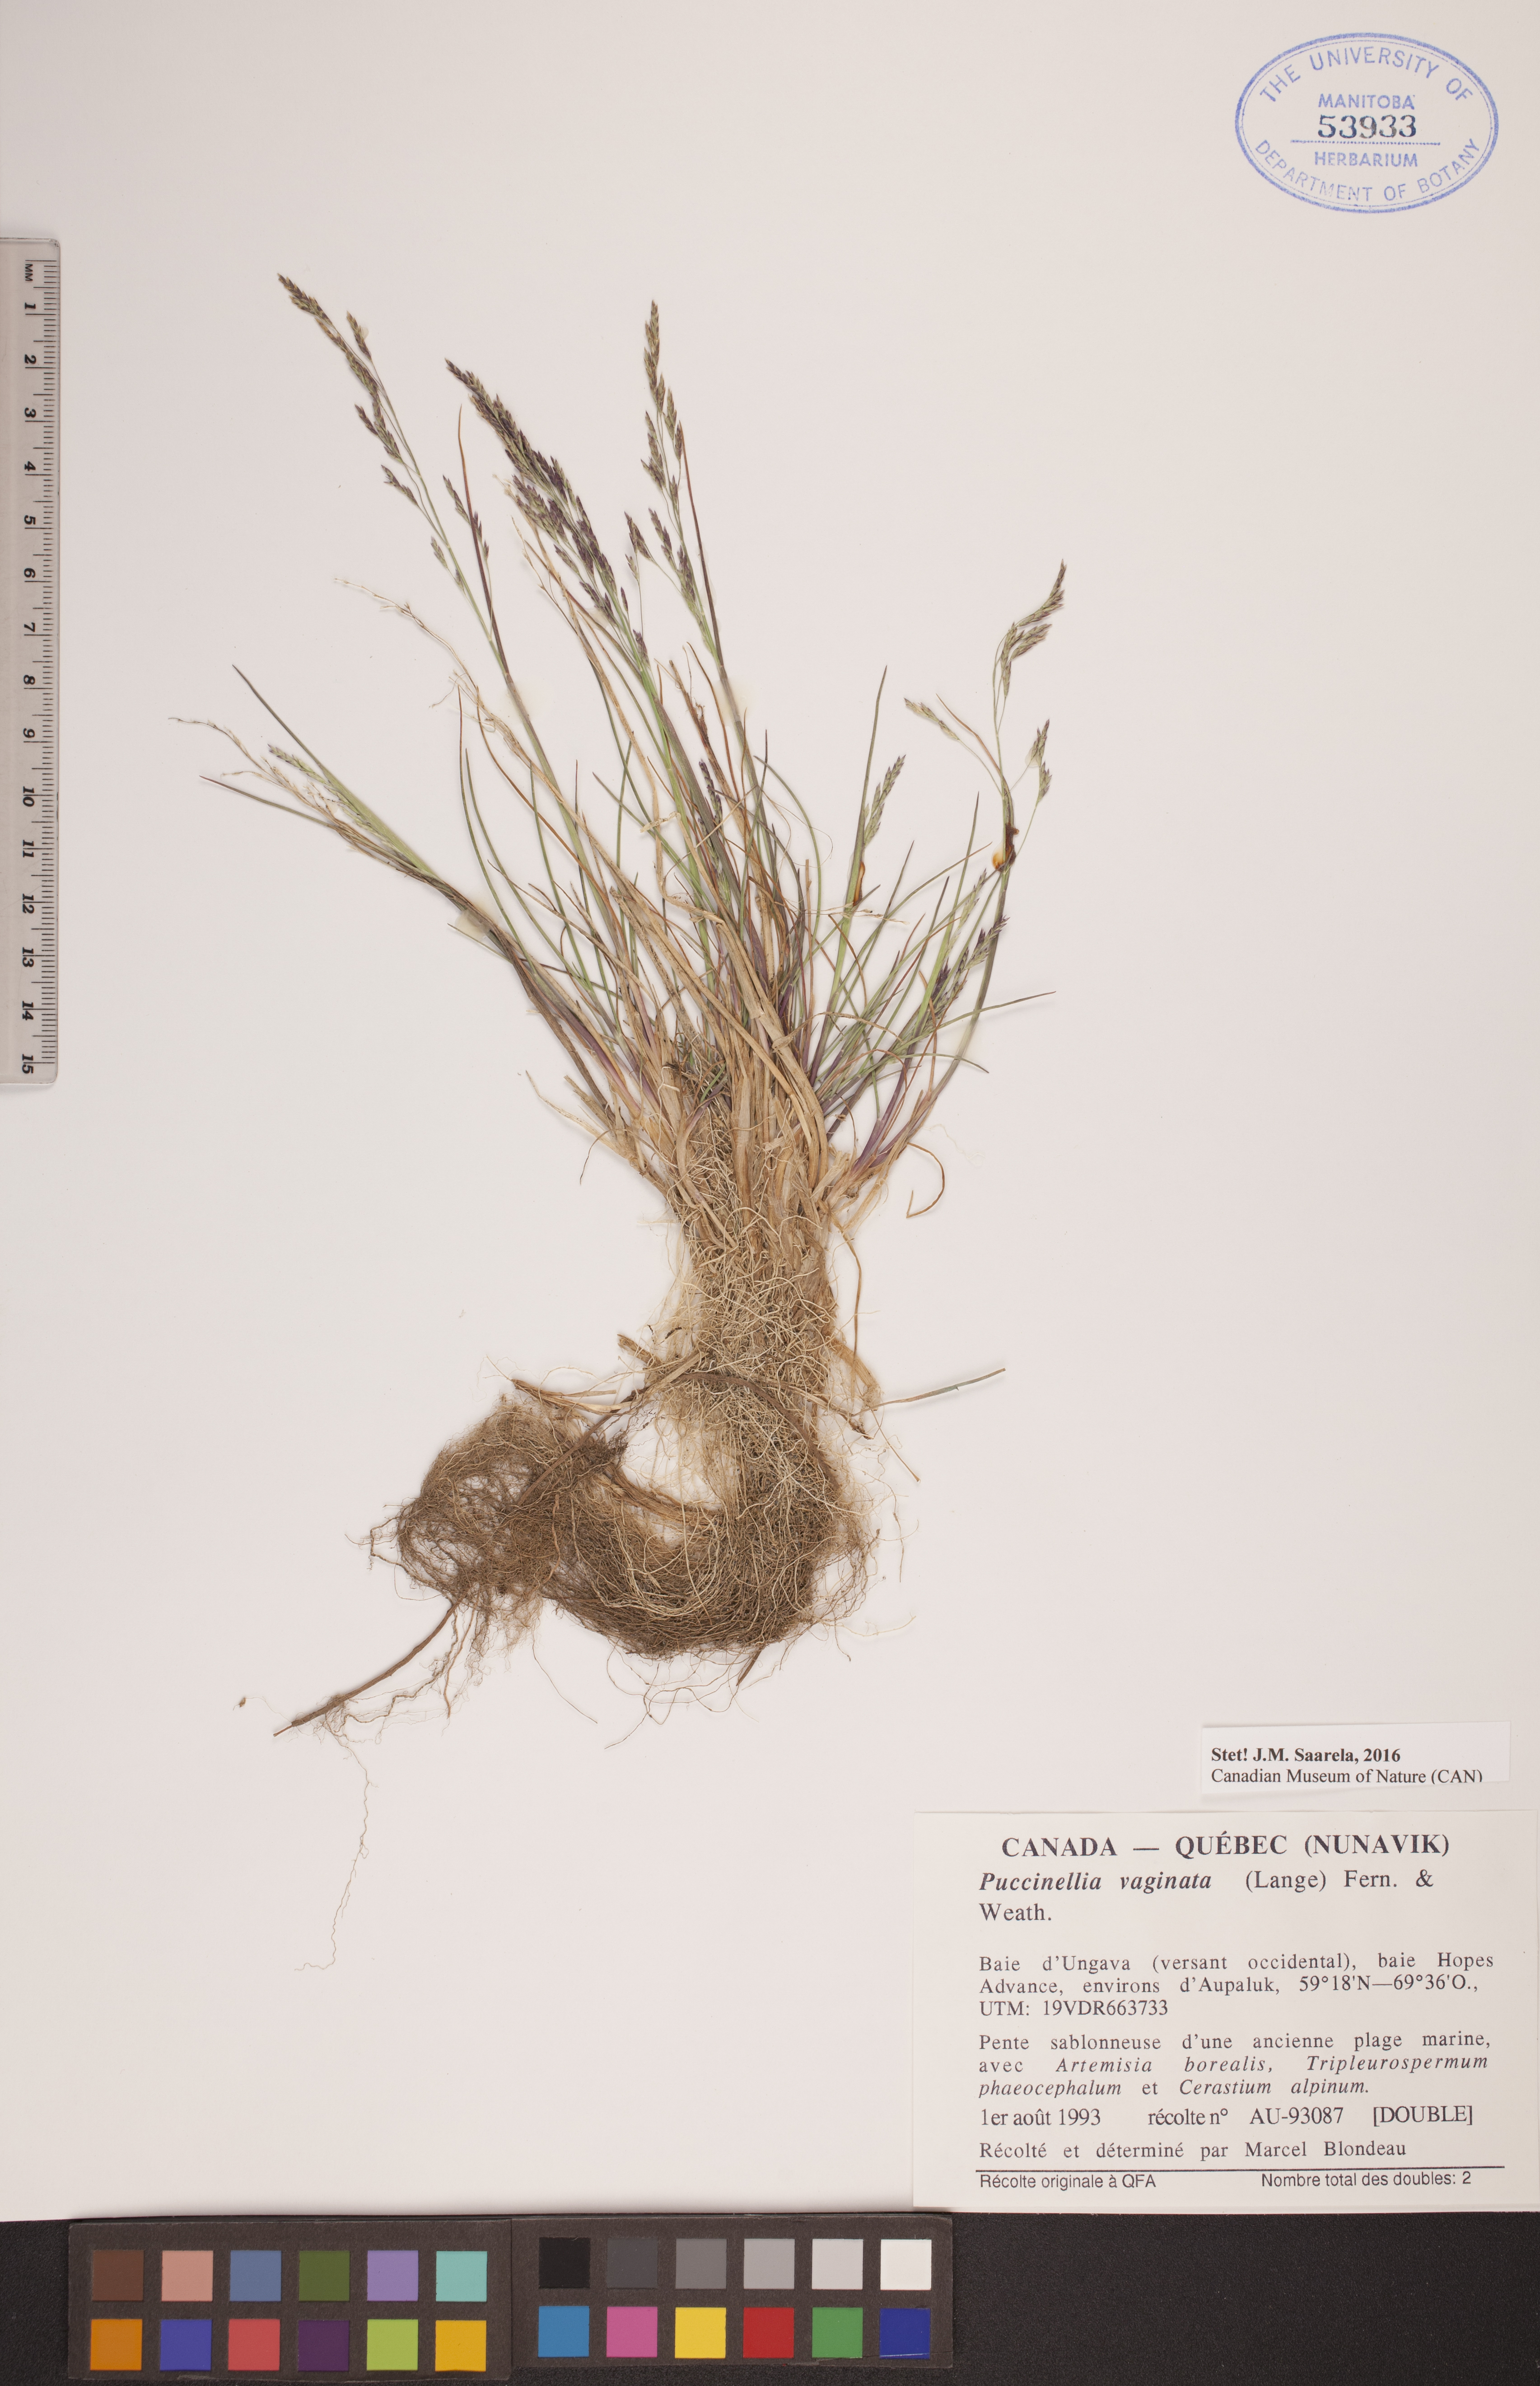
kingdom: Plantae
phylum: Tracheophyta
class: Liliopsida
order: Poales
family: Poaceae
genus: Puccinellia
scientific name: Puccinellia vaginata
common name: Arctic tussock alkaligrass
